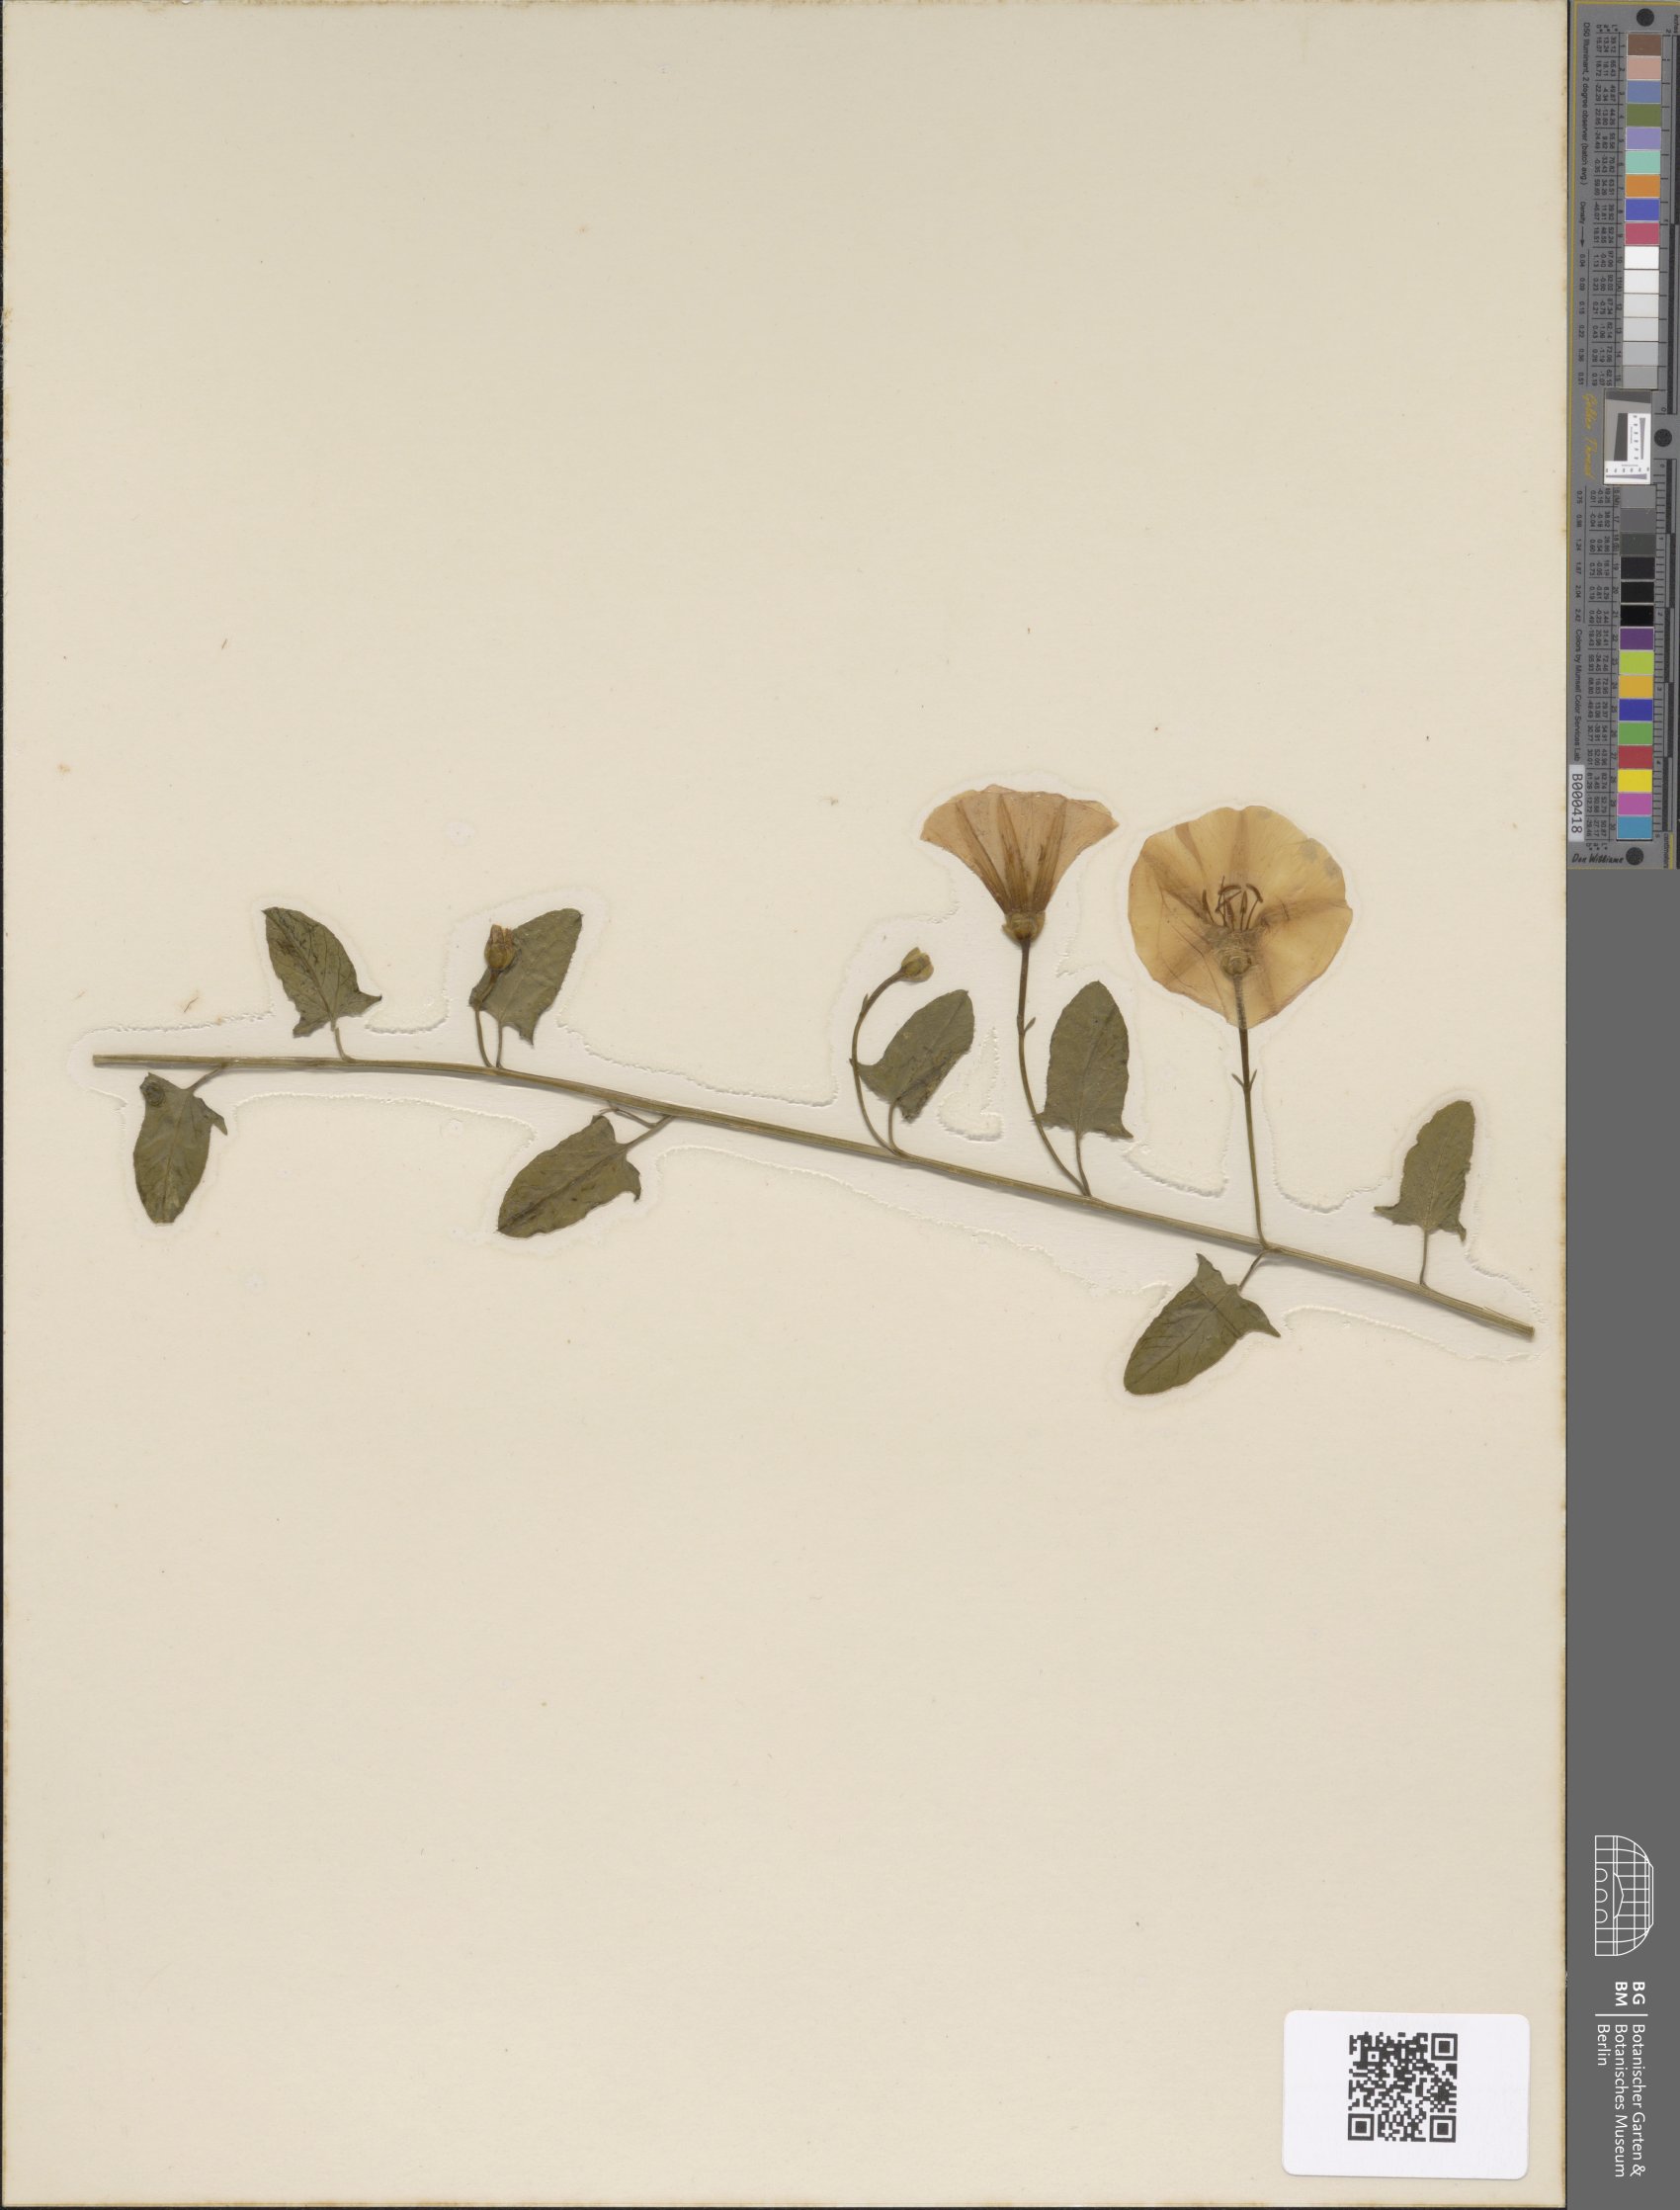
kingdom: Plantae
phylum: Tracheophyta
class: Magnoliopsida
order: Solanales
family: Convolvulaceae
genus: Convolvulus
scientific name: Convolvulus arvensis
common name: Field bindweed
